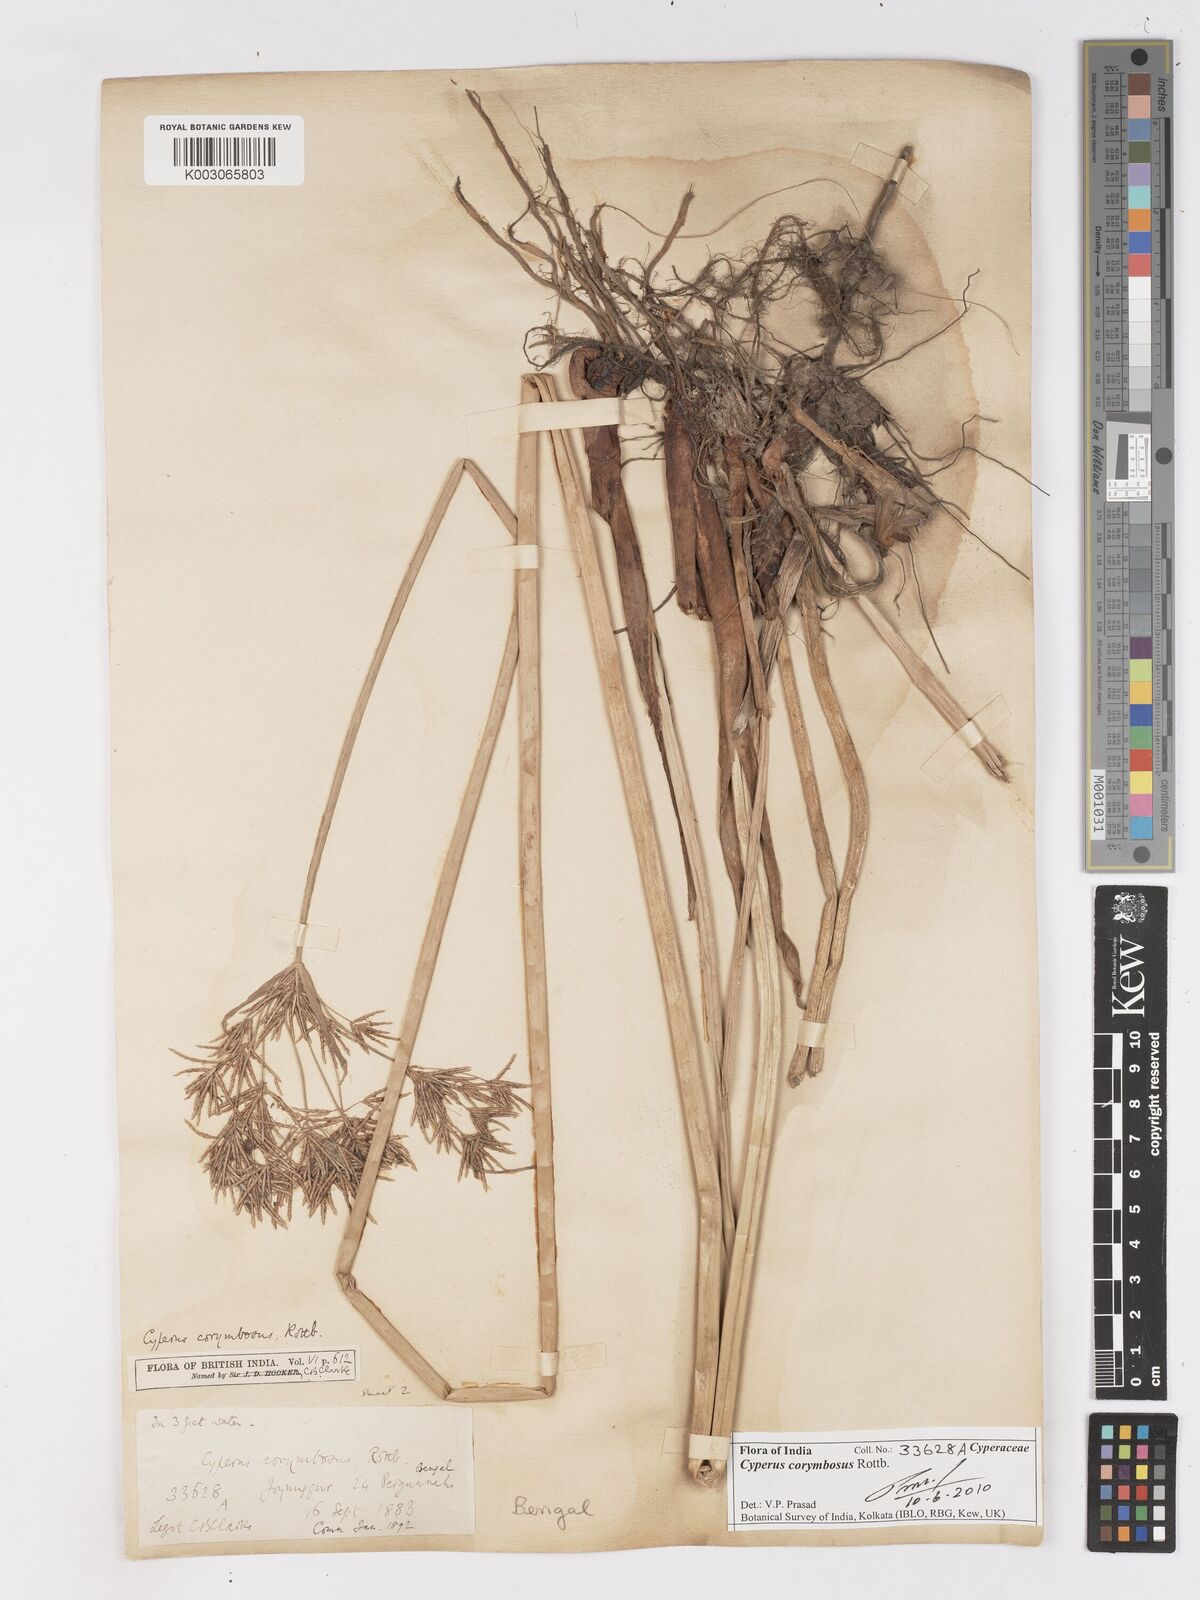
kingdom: Plantae
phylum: Tracheophyta
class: Liliopsida
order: Poales
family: Cyperaceae
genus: Cyperus
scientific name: Cyperus corymbosus
